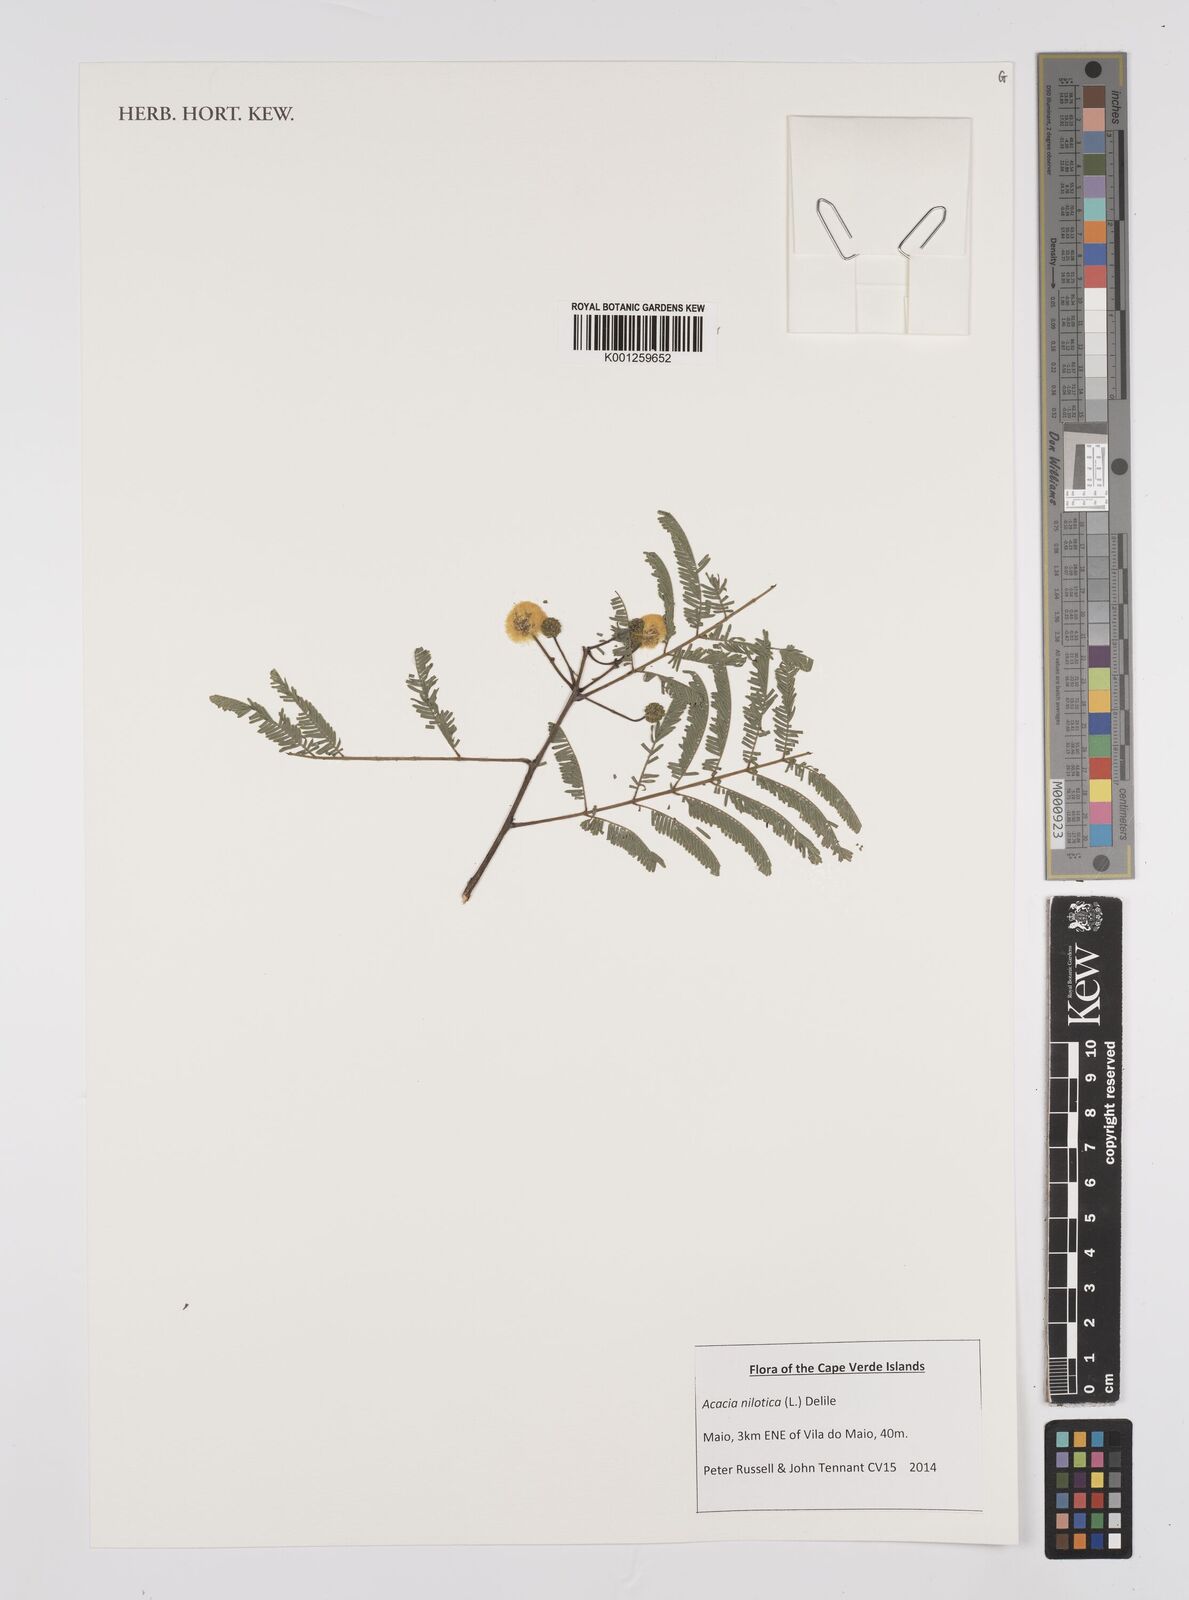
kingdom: Plantae
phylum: Tracheophyta
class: Magnoliopsida
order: Fabales
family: Fabaceae
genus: Vachellia
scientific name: Vachellia nilotica
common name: Arabic gumtree
